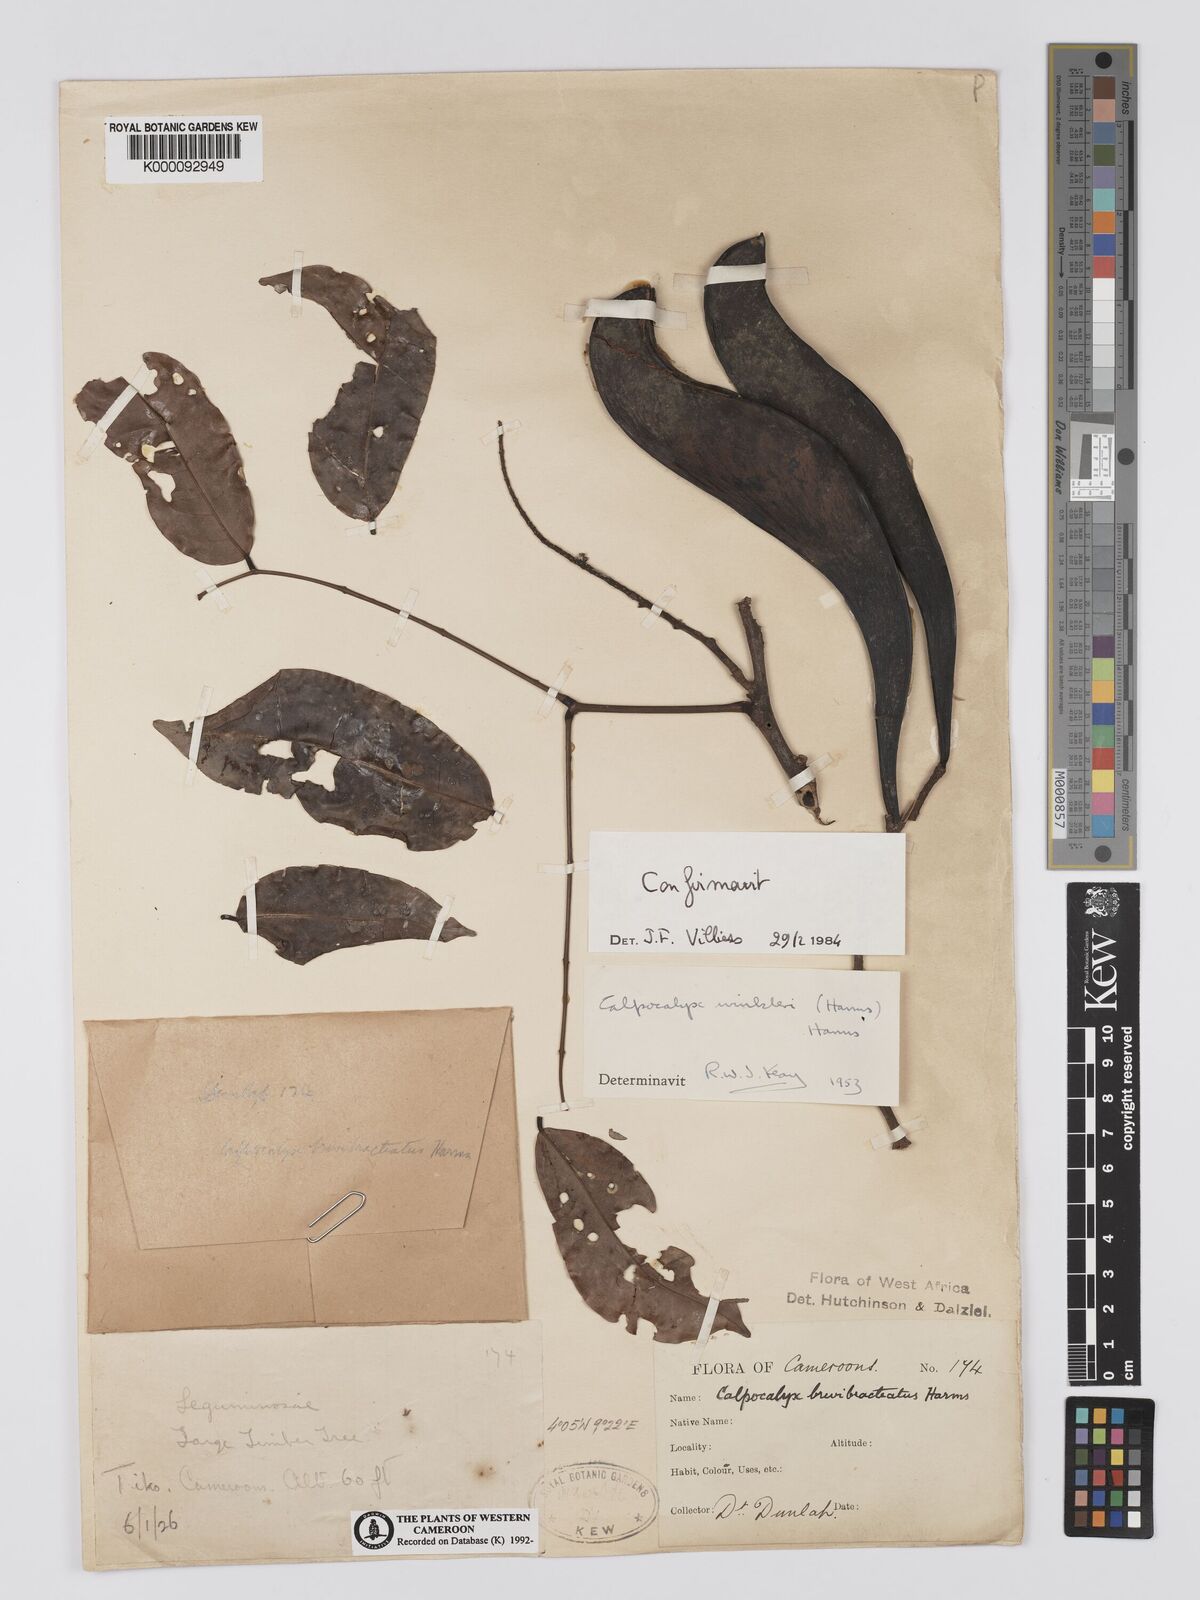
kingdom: Plantae
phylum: Tracheophyta
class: Magnoliopsida
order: Fabales
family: Fabaceae
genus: Calpocalyx
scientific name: Calpocalyx winkleri
